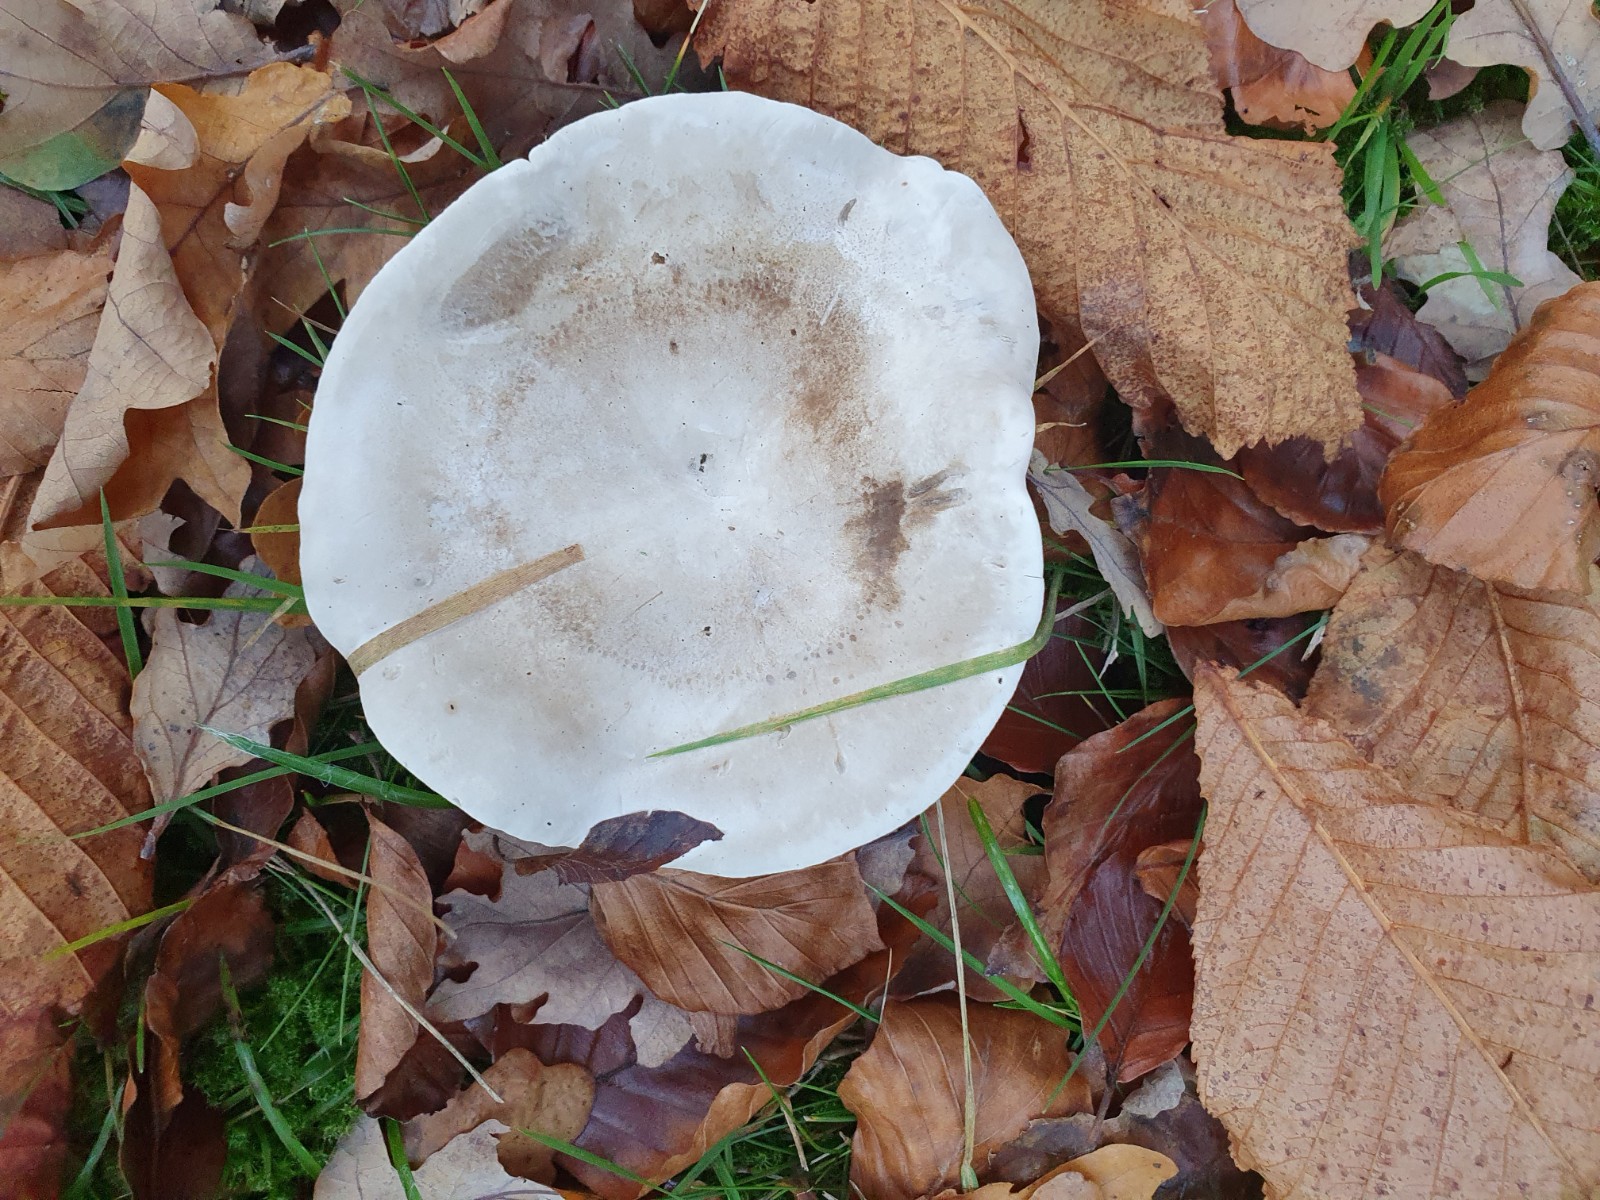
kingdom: Fungi
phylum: Basidiomycota
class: Agaricomycetes
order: Agaricales
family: Entolomataceae
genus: Clitopilus
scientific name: Clitopilus prunulus
